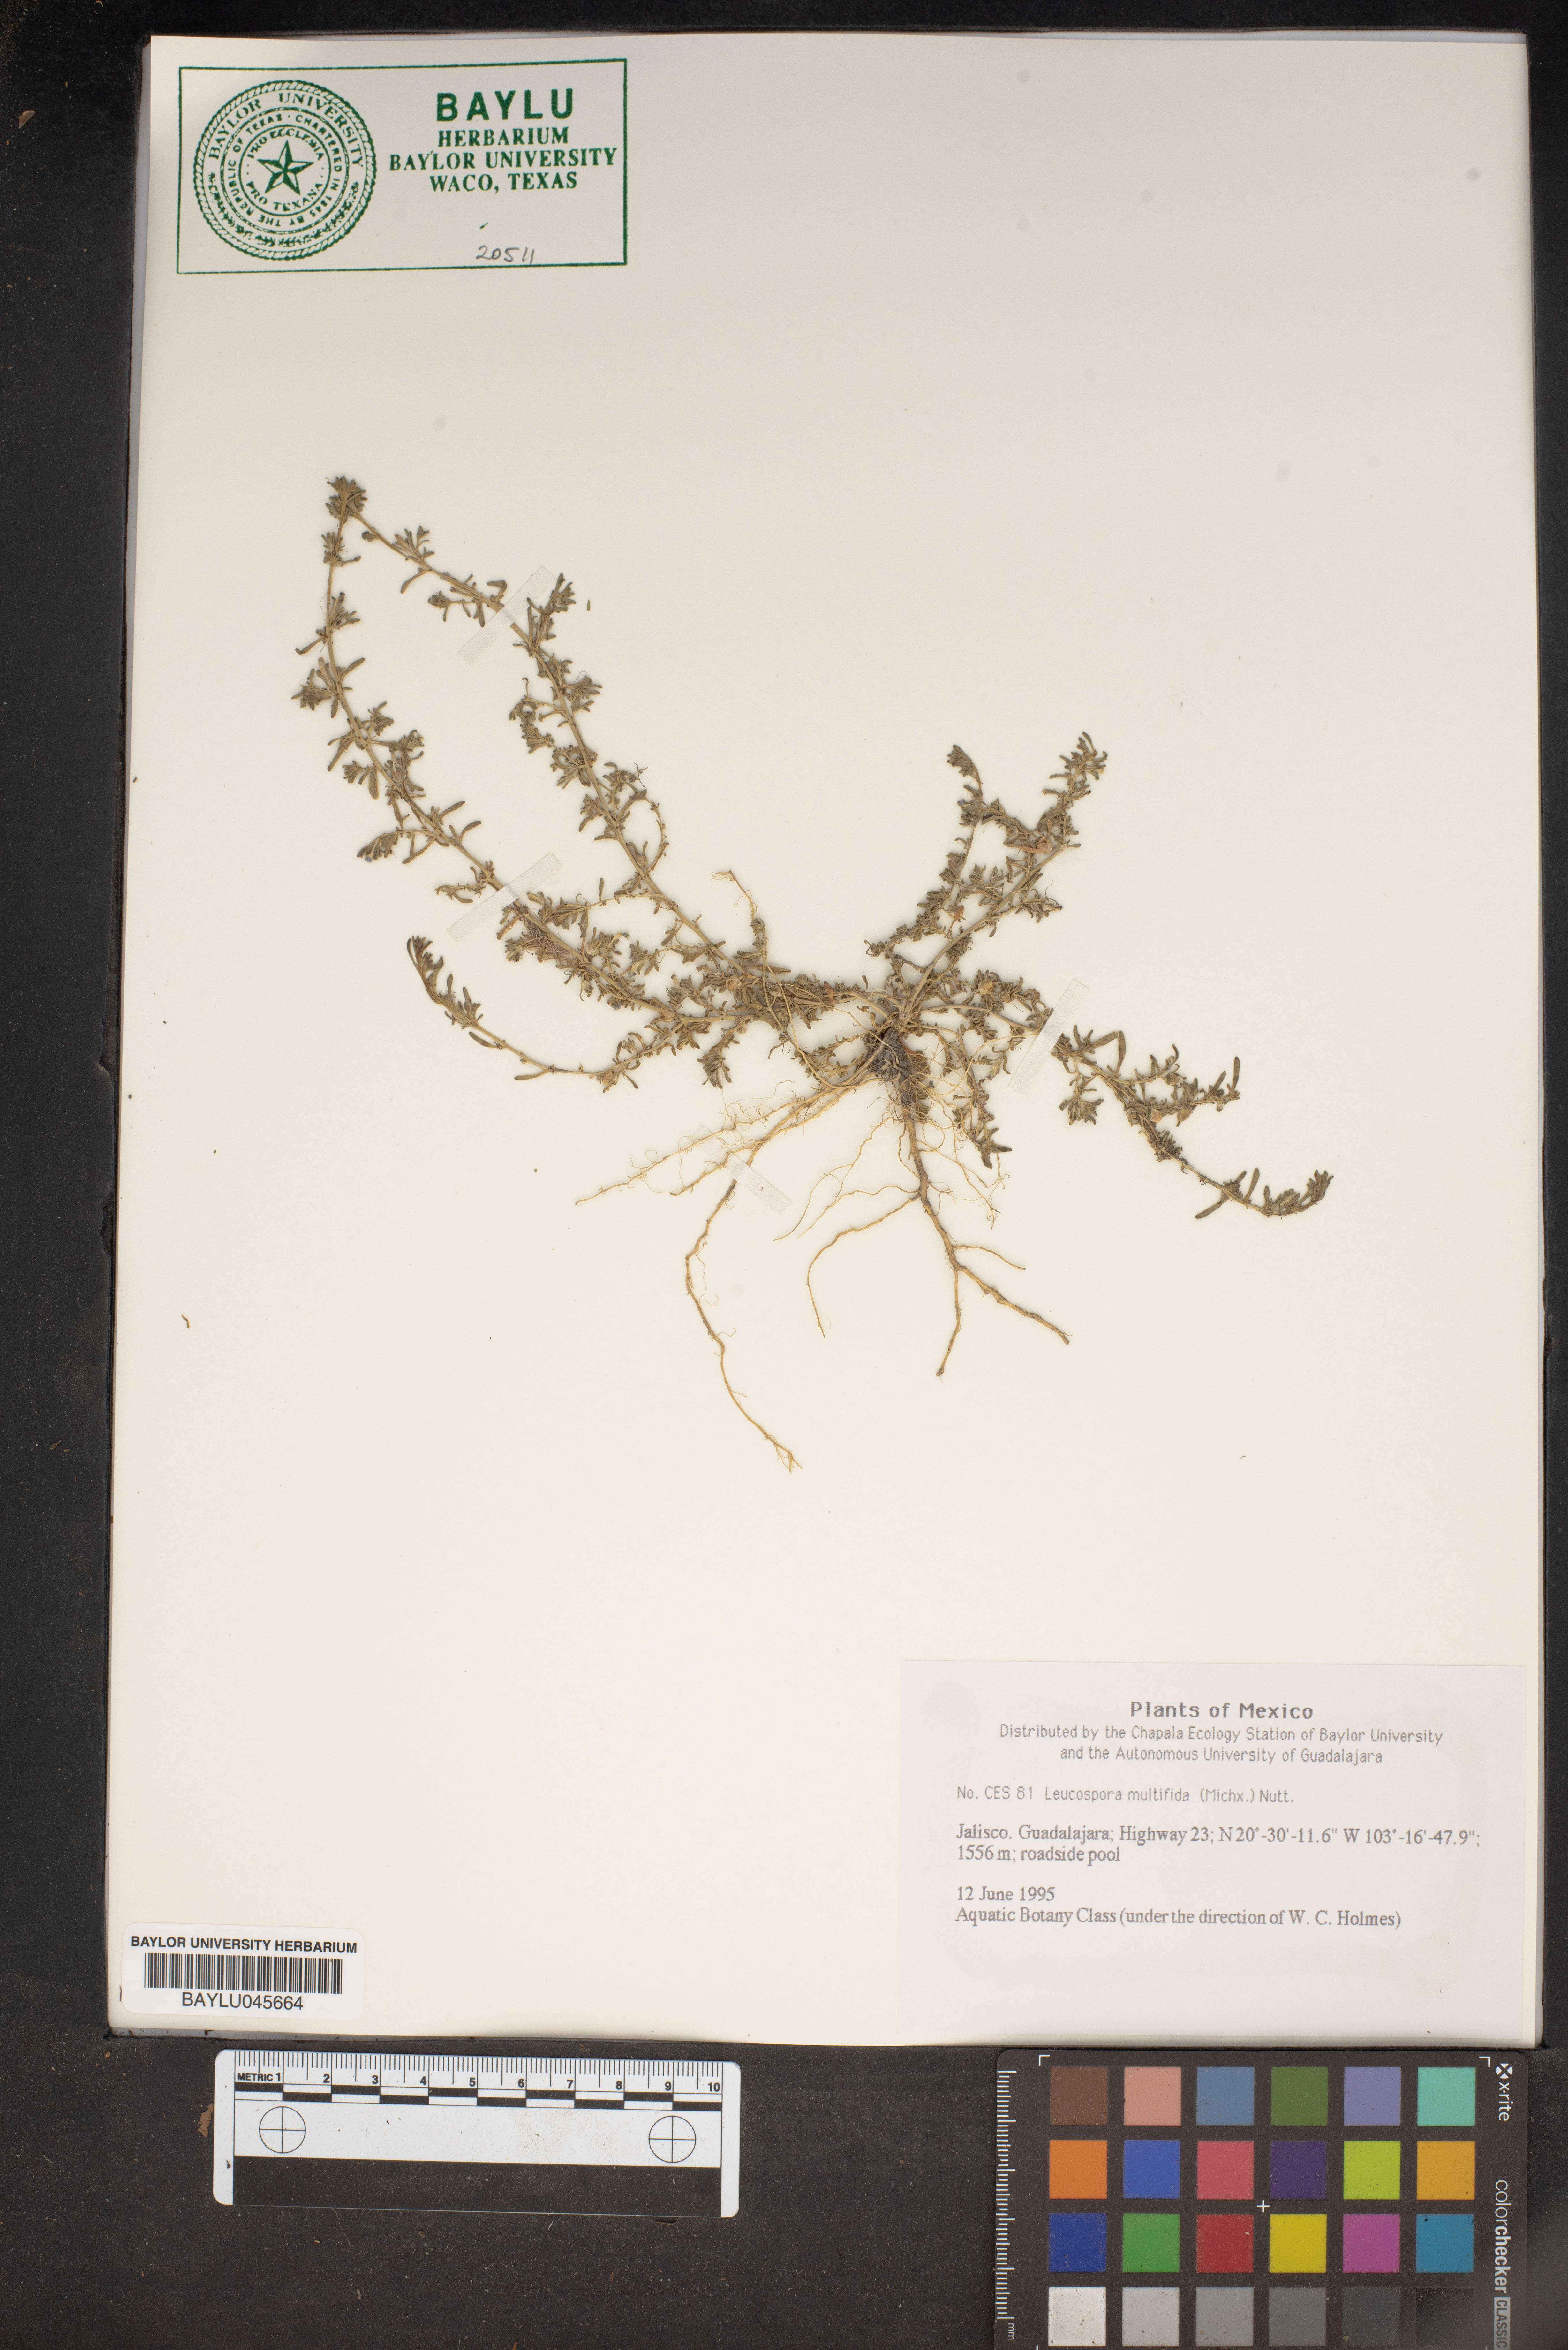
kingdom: Plantae
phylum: Tracheophyta
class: Magnoliopsida
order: Lamiales
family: Plantaginaceae
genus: Leucospora
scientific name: Leucospora multifida
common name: Narrow-leaf paleseed
